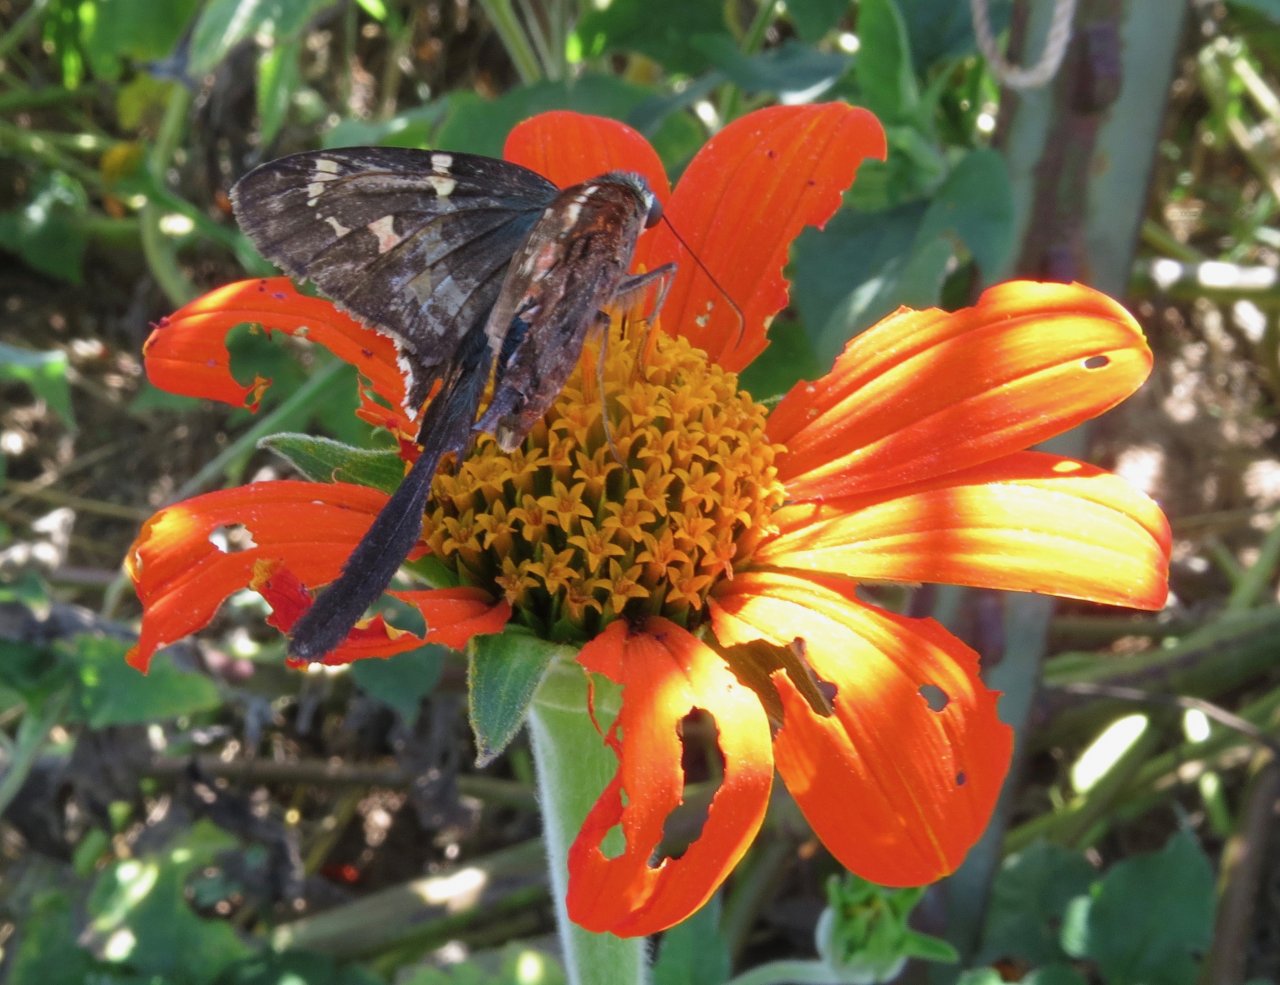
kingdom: Animalia
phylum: Arthropoda
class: Insecta
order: Lepidoptera
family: Hesperiidae
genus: Urbanus
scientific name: Urbanus proteus
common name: Long-tailed Skipper
